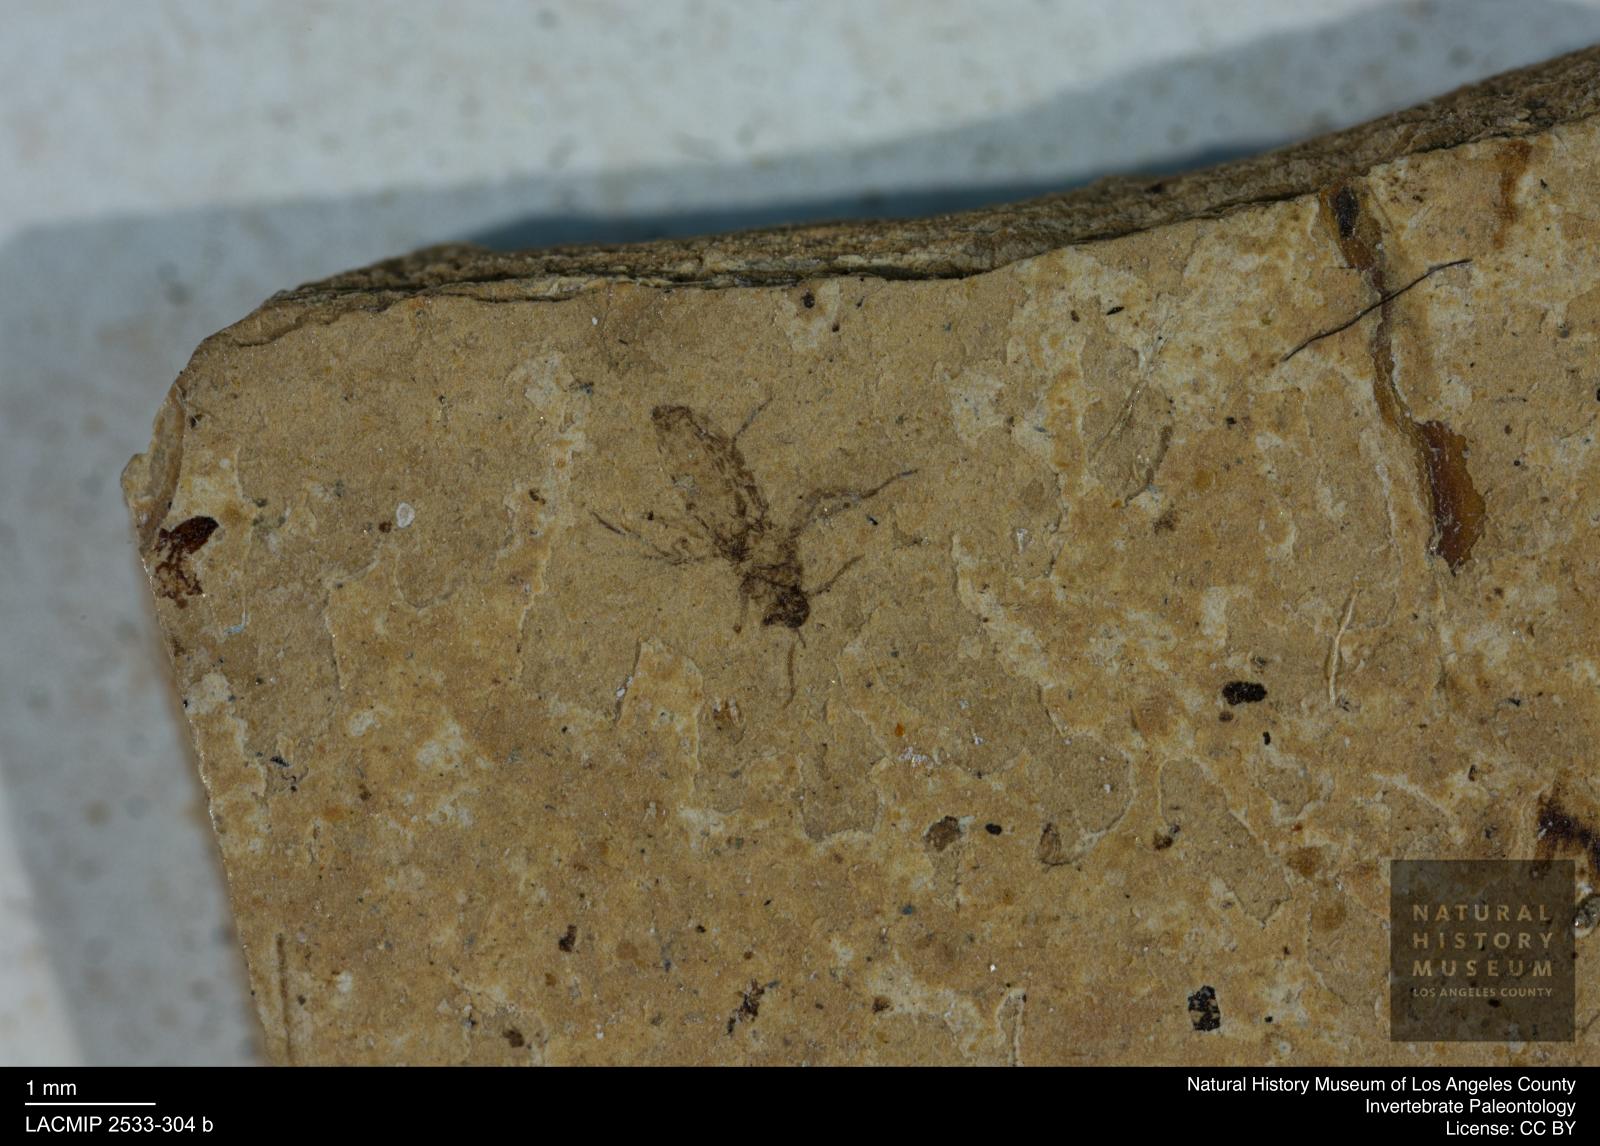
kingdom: Animalia
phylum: Arthropoda
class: Insecta
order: Diptera
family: Ceratopogonidae
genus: Atrichopogon
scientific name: Atrichopogon brunnescens
